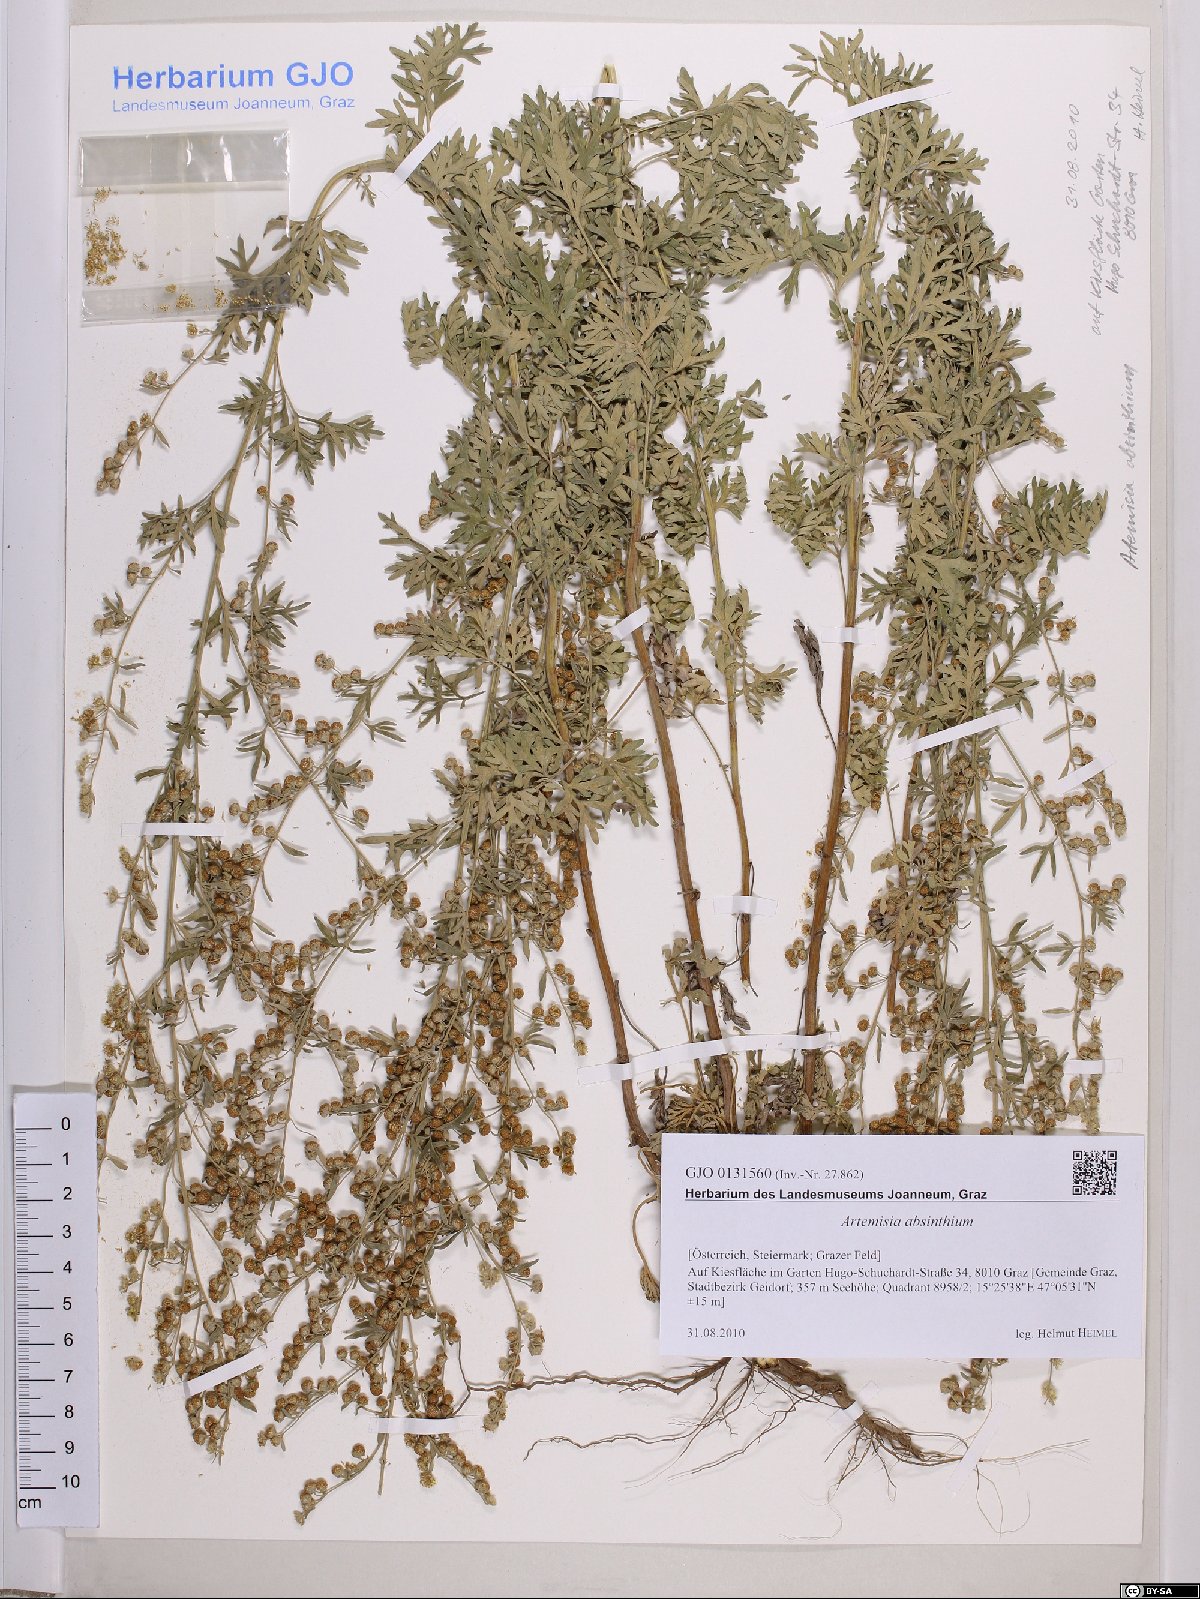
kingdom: Plantae
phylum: Tracheophyta
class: Magnoliopsida
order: Asterales
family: Asteraceae
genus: Artemisia
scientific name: Artemisia absinthium
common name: Wormwood
